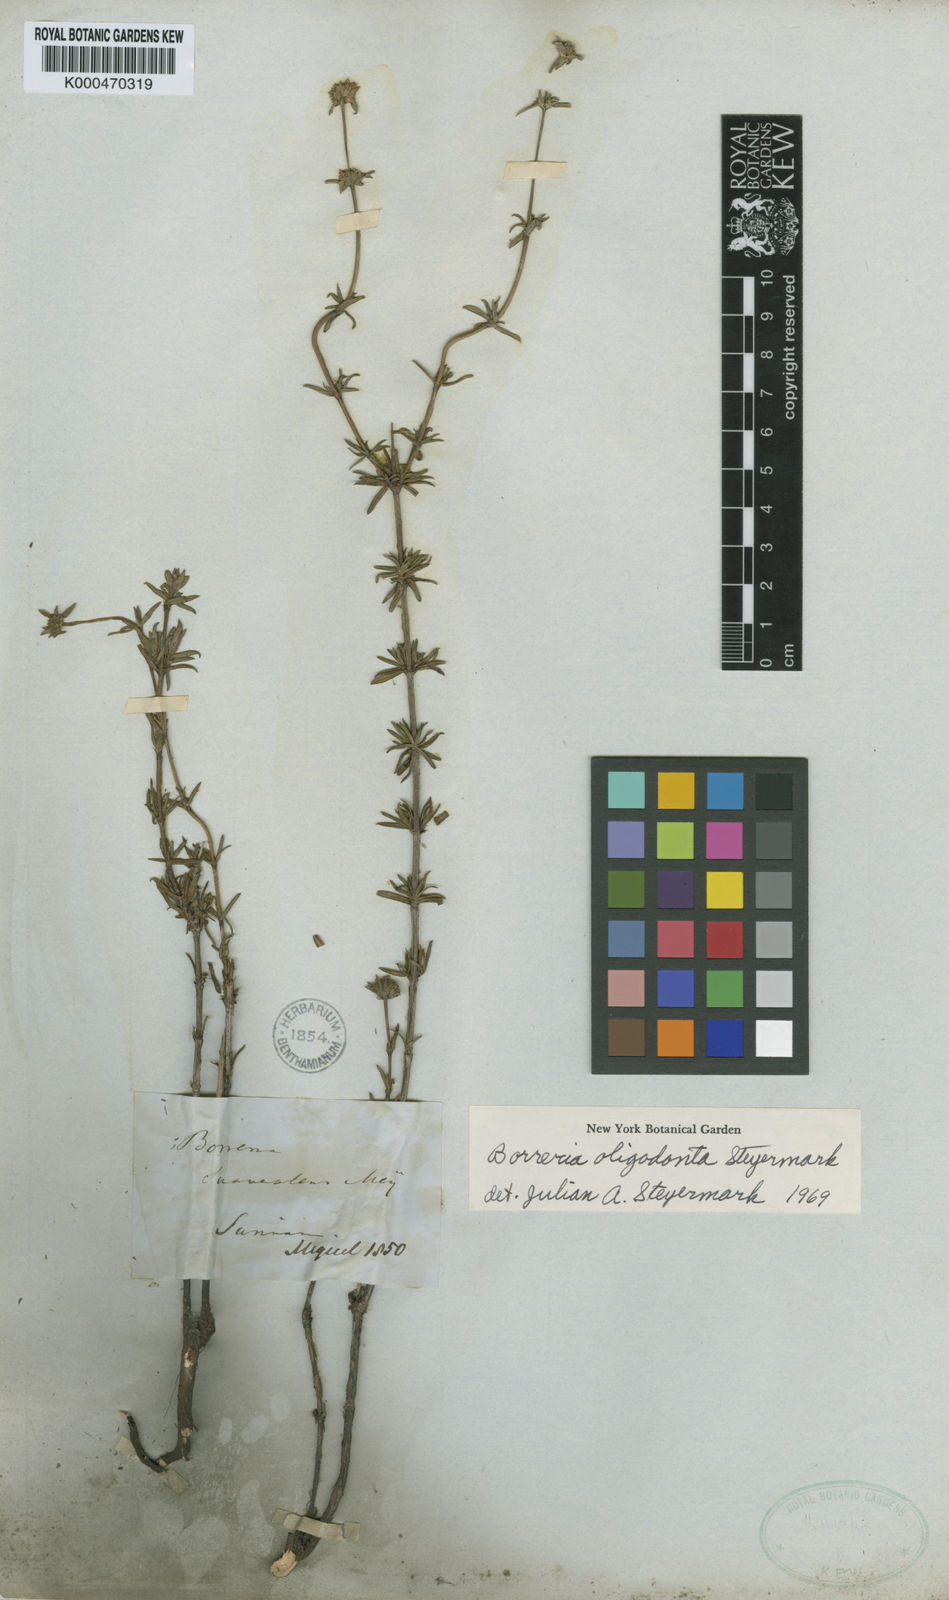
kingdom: Plantae
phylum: Tracheophyta
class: Magnoliopsida
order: Gentianales
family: Rubiaceae
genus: Spermacoce
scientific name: Spermacoce verticillata
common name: Shrubby false buttonweed
